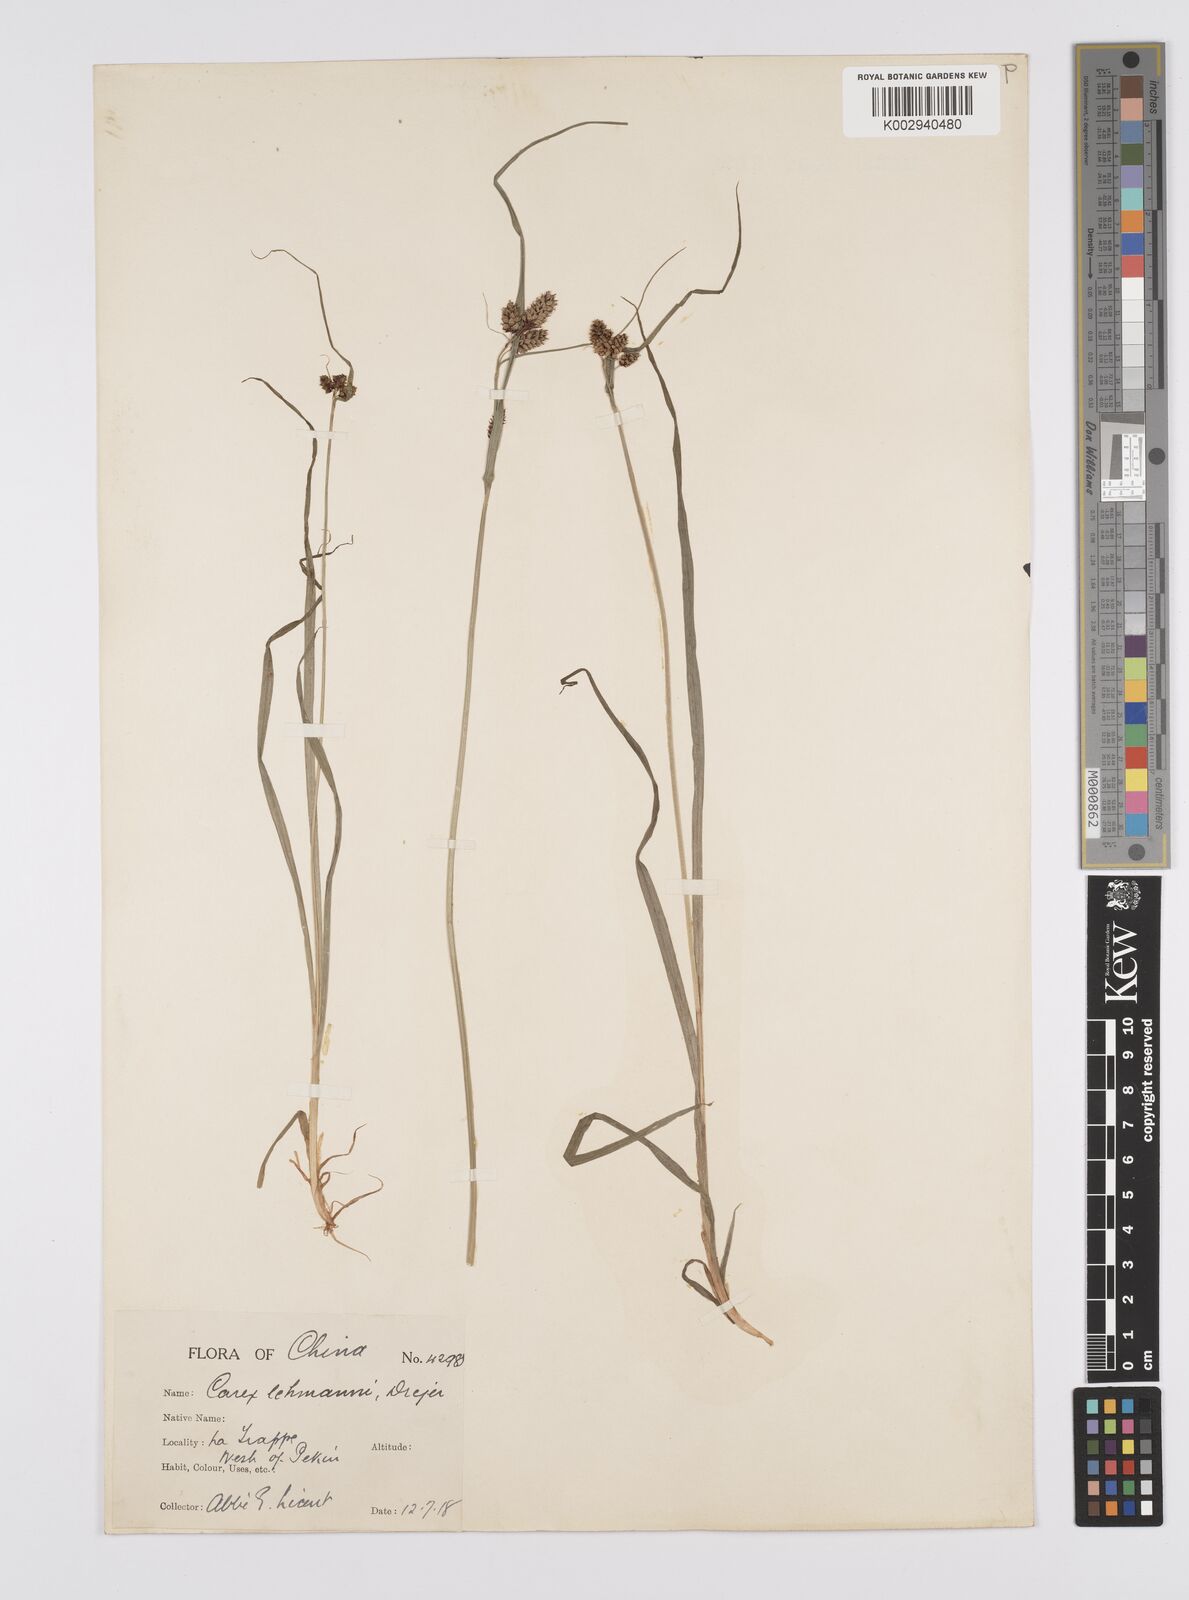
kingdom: Plantae
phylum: Tracheophyta
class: Liliopsida
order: Poales
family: Cyperaceae
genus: Carex
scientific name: Carex hancockiana
